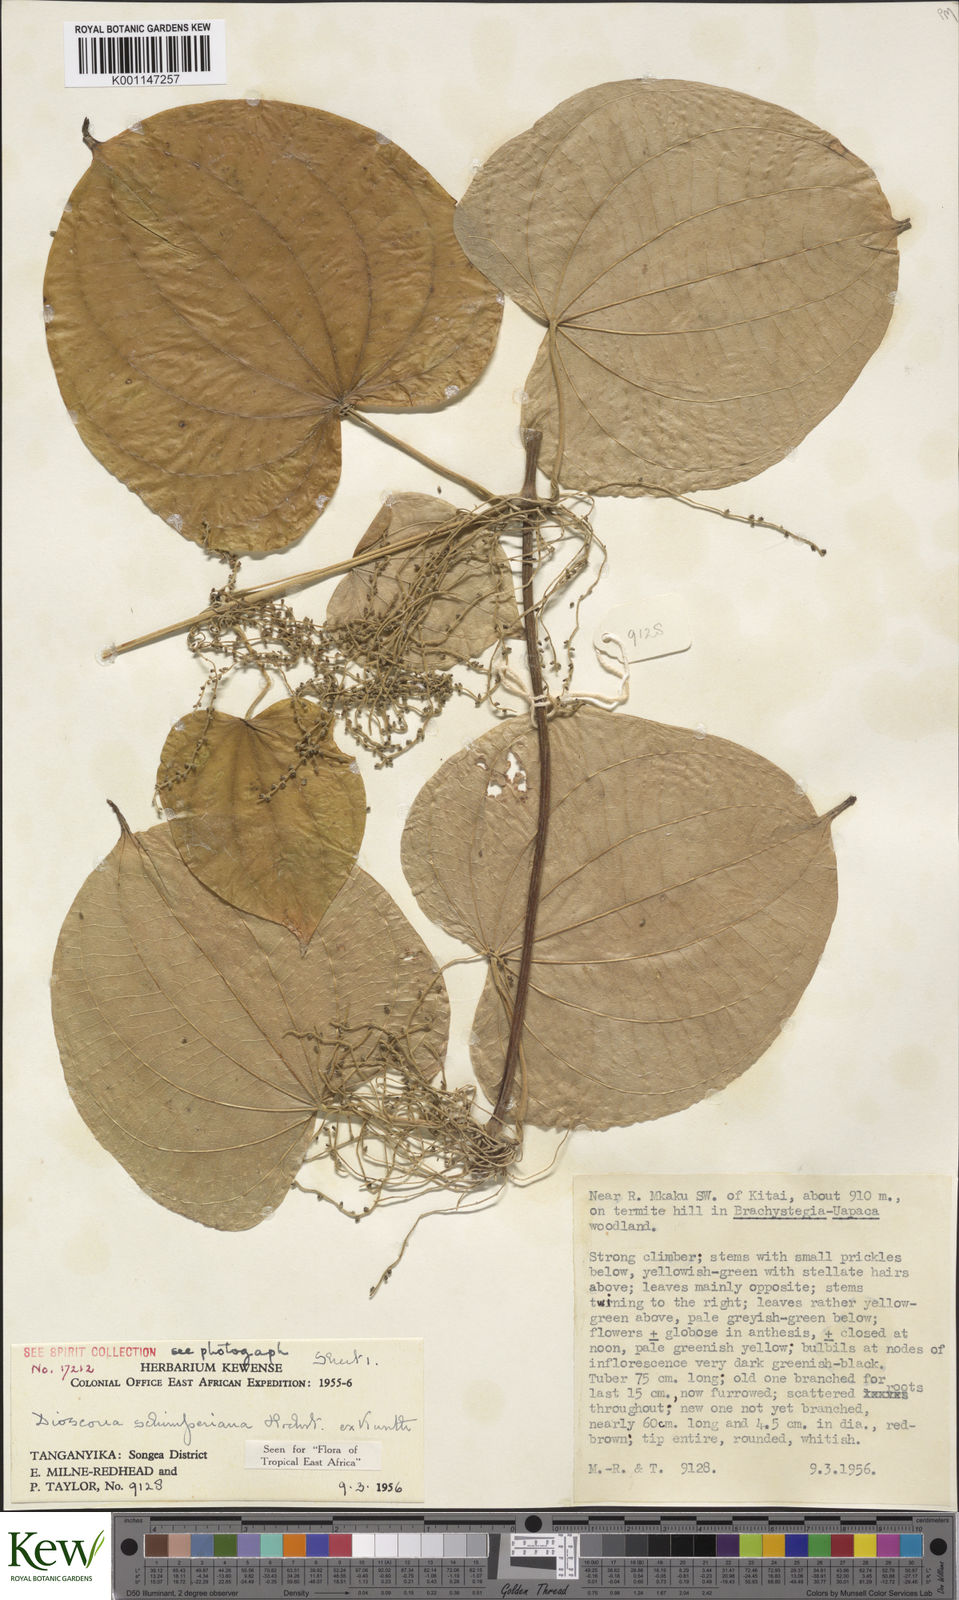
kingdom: Plantae
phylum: Tracheophyta
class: Liliopsida
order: Dioscoreales
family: Dioscoreaceae
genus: Dioscorea
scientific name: Dioscorea schimperiana
